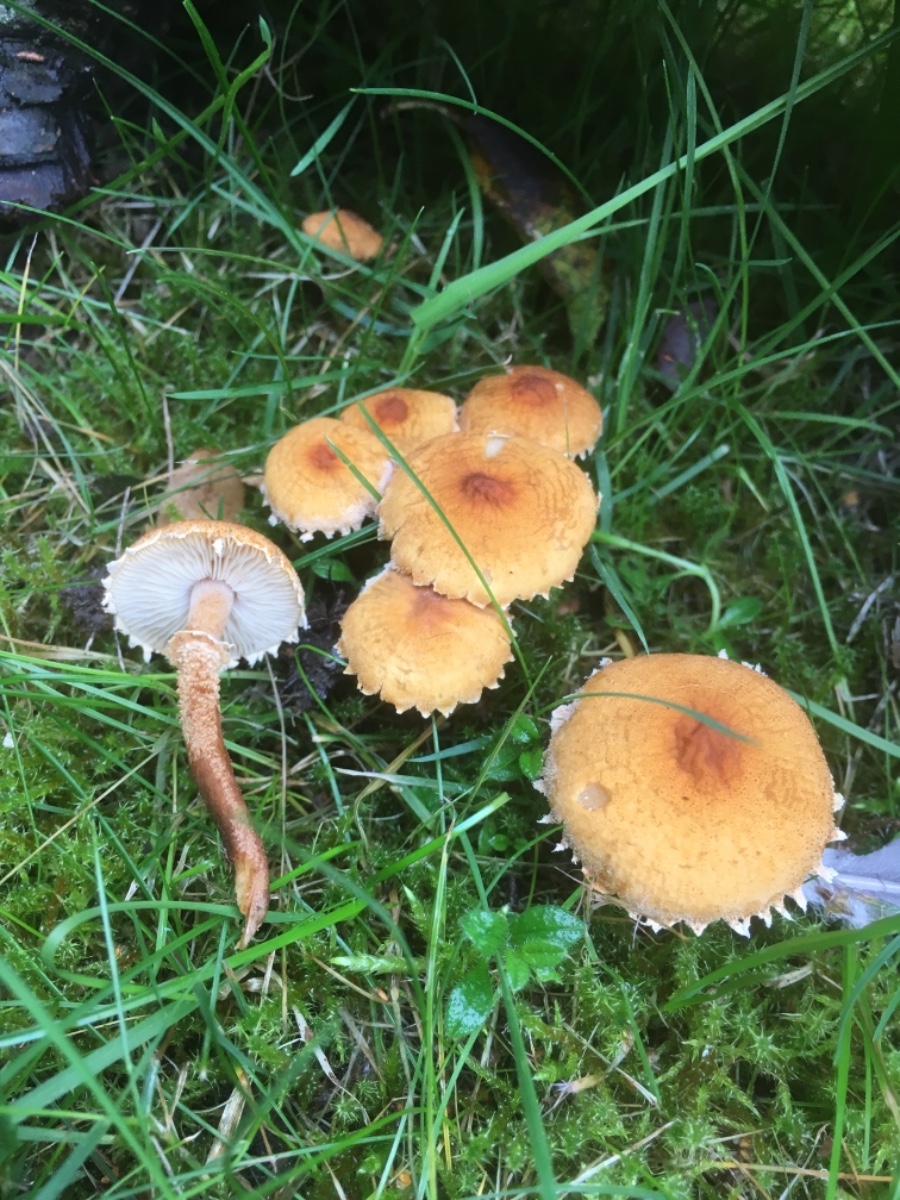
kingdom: Fungi
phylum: Basidiomycota
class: Agaricomycetes
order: Agaricales
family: Tricholomataceae
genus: Cystoderma
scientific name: Cystoderma amianthinum
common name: okkergul grynhat
